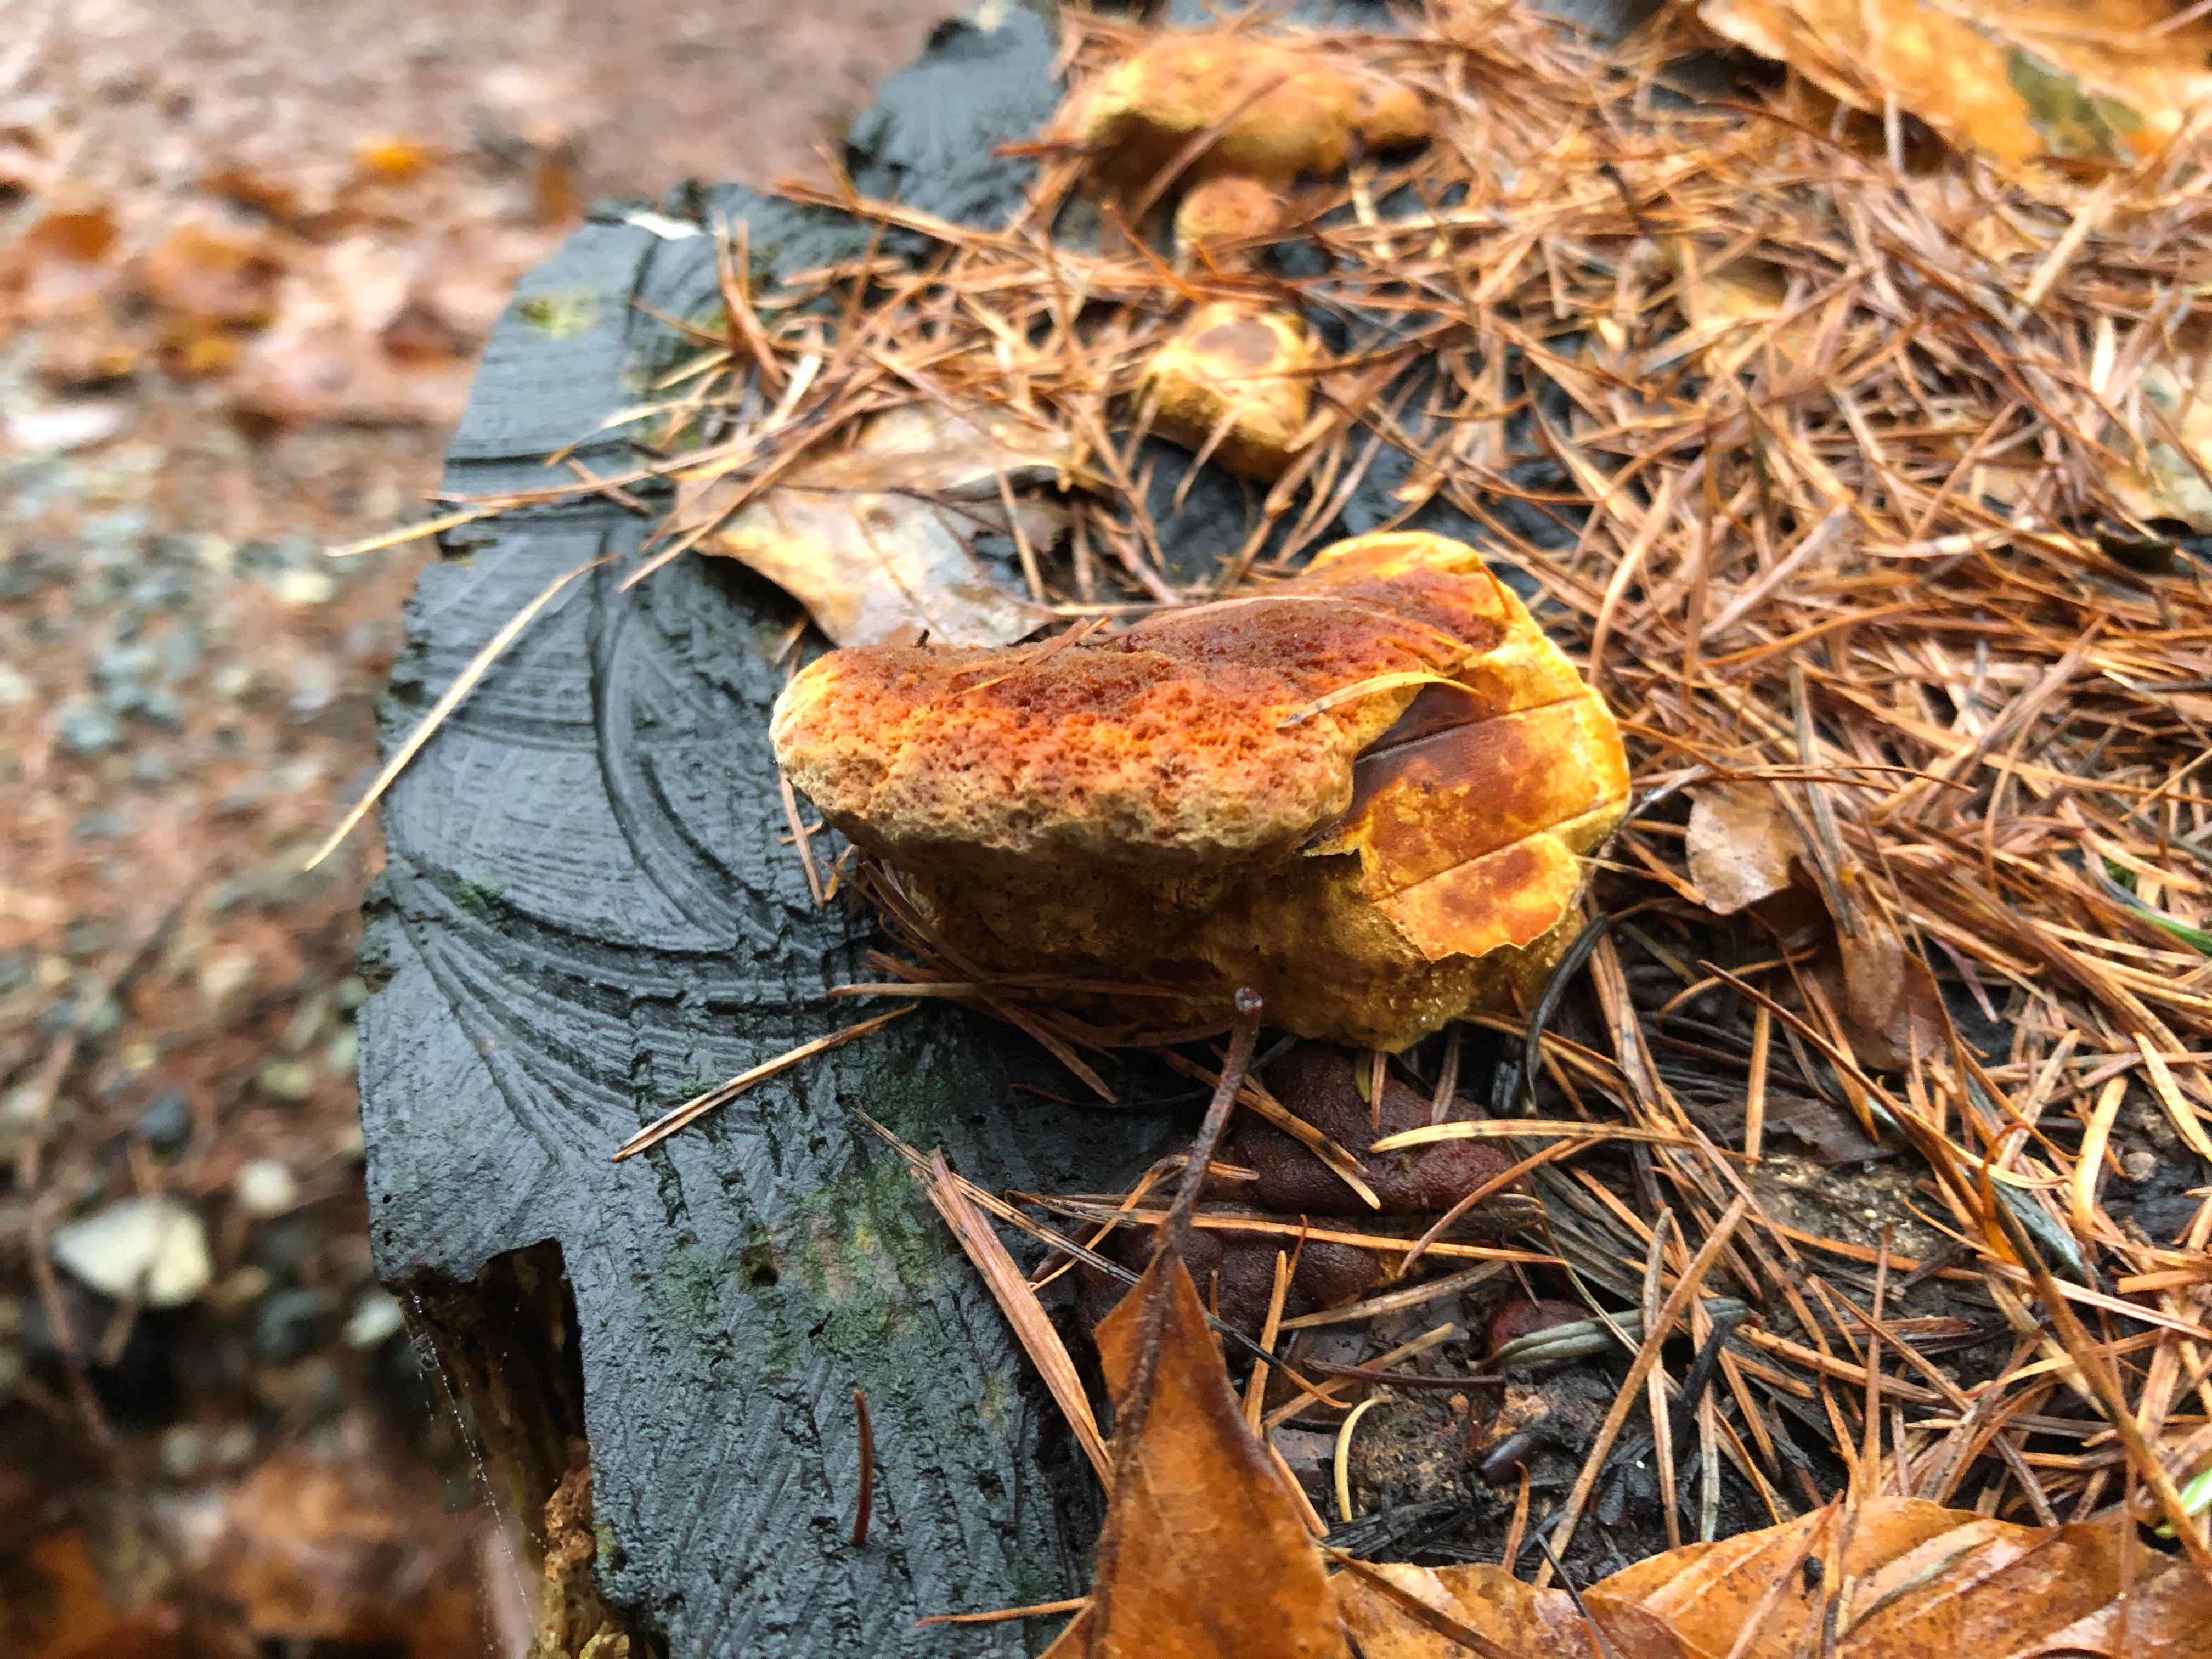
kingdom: Fungi
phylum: Basidiomycota
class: Agaricomycetes
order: Gloeophyllales
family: Gloeophyllaceae
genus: Gloeophyllum
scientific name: Gloeophyllum odoratum
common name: duftende korkhat
